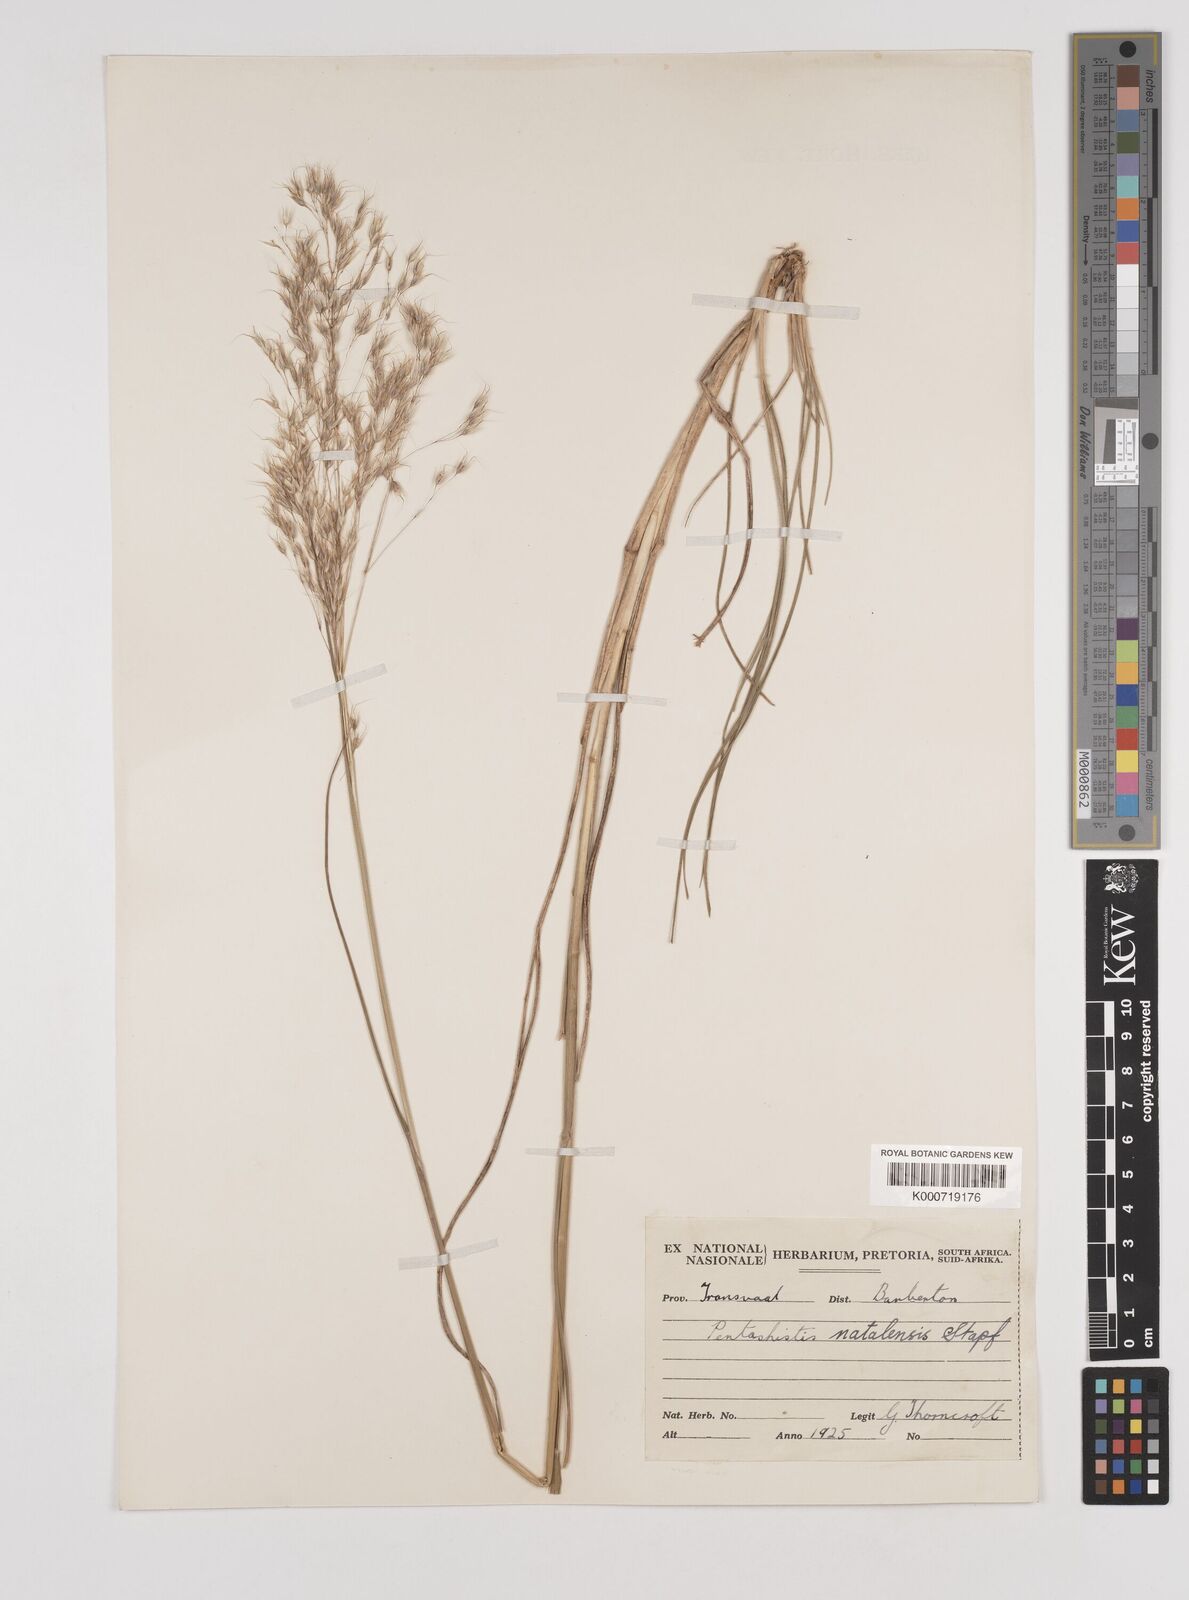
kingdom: Plantae
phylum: Tracheophyta
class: Liliopsida
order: Poales
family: Poaceae
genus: Pentameris
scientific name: Pentameris natalensis
